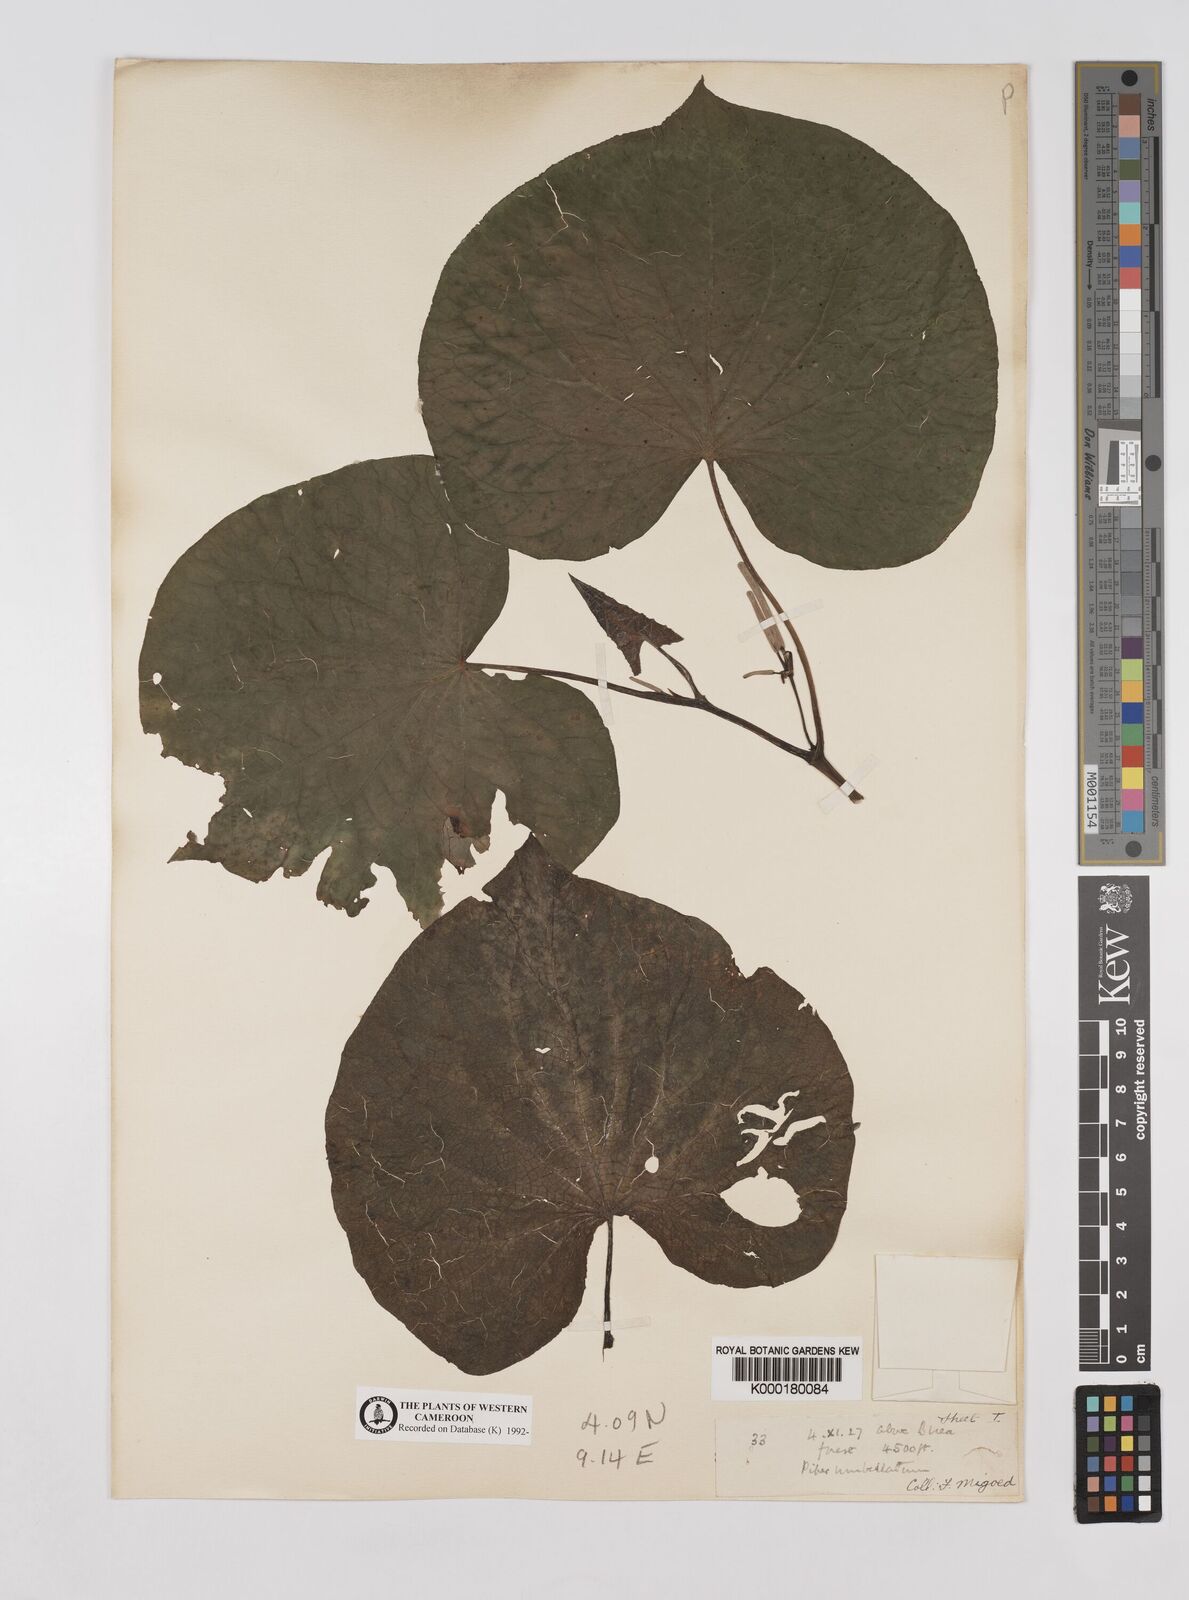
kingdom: Plantae
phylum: Tracheophyta
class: Magnoliopsida
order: Piperales
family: Piperaceae
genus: Piper
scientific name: Piper umbellatum
